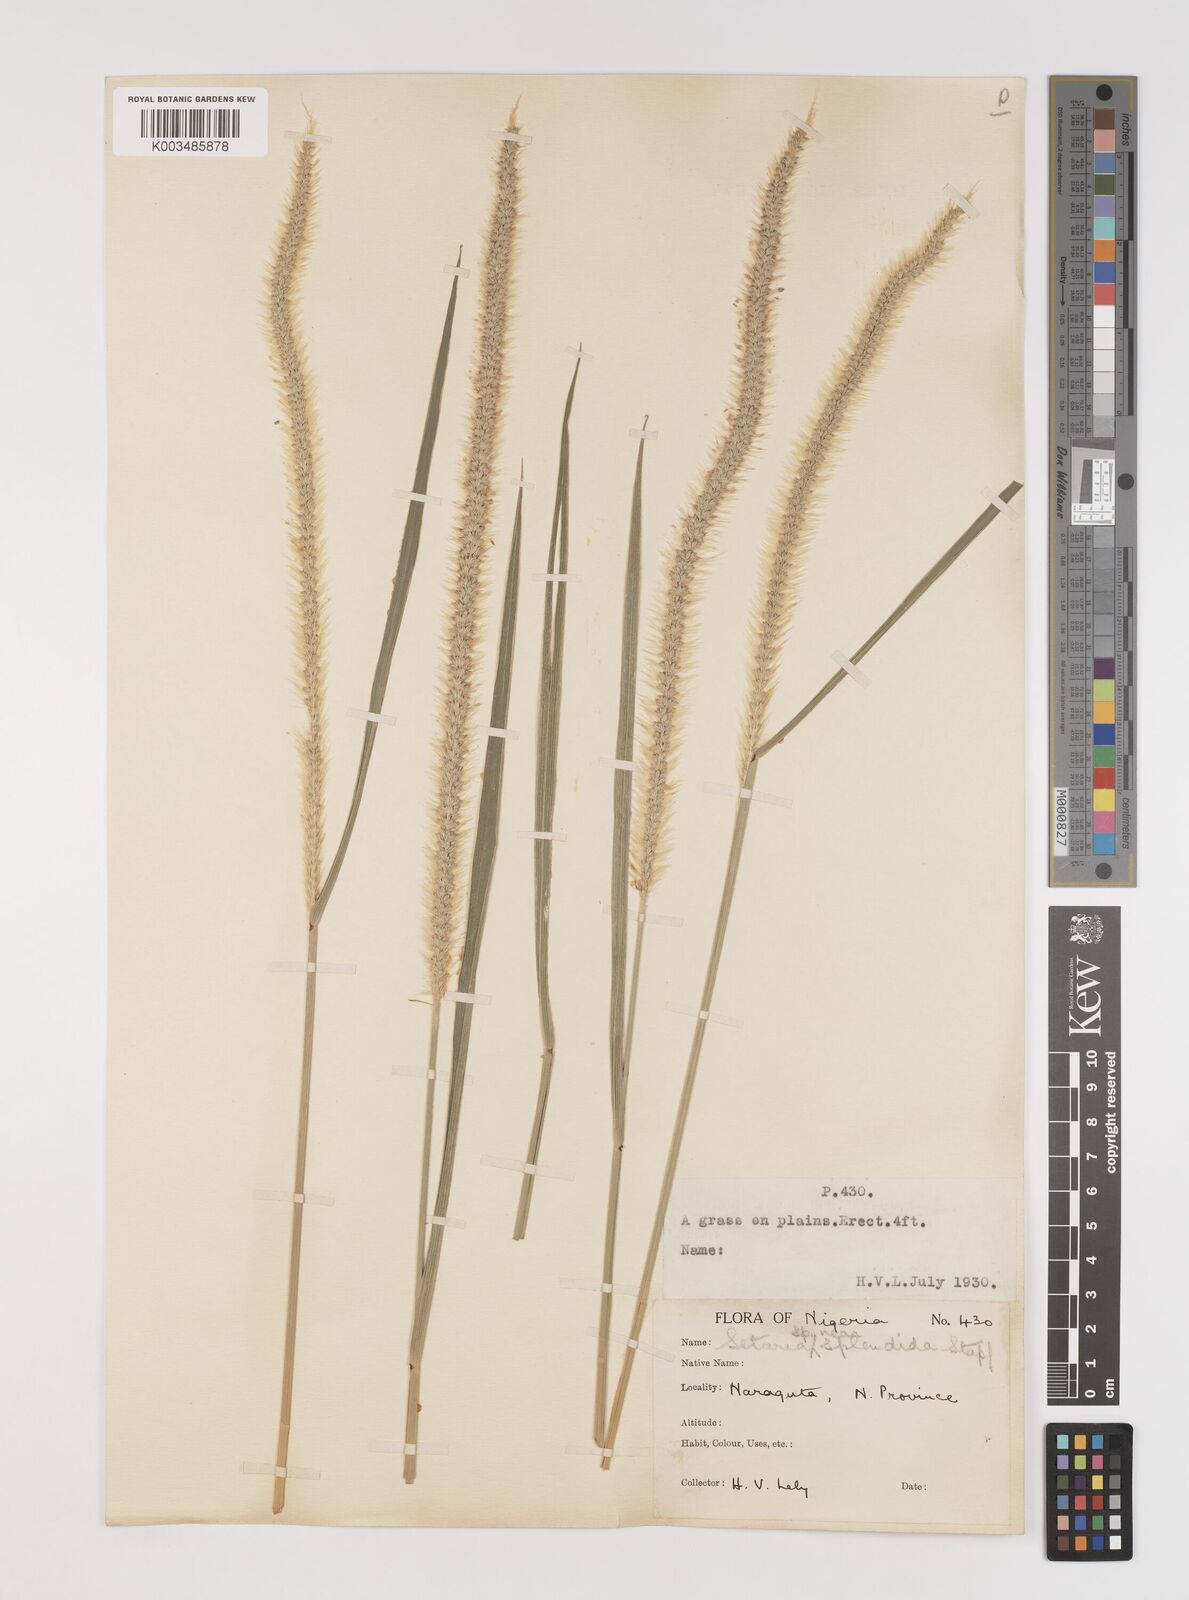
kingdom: Plantae
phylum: Tracheophyta
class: Liliopsida
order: Poales
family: Poaceae
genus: Setaria
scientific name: Setaria sphacelata
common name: African bristlegrass
